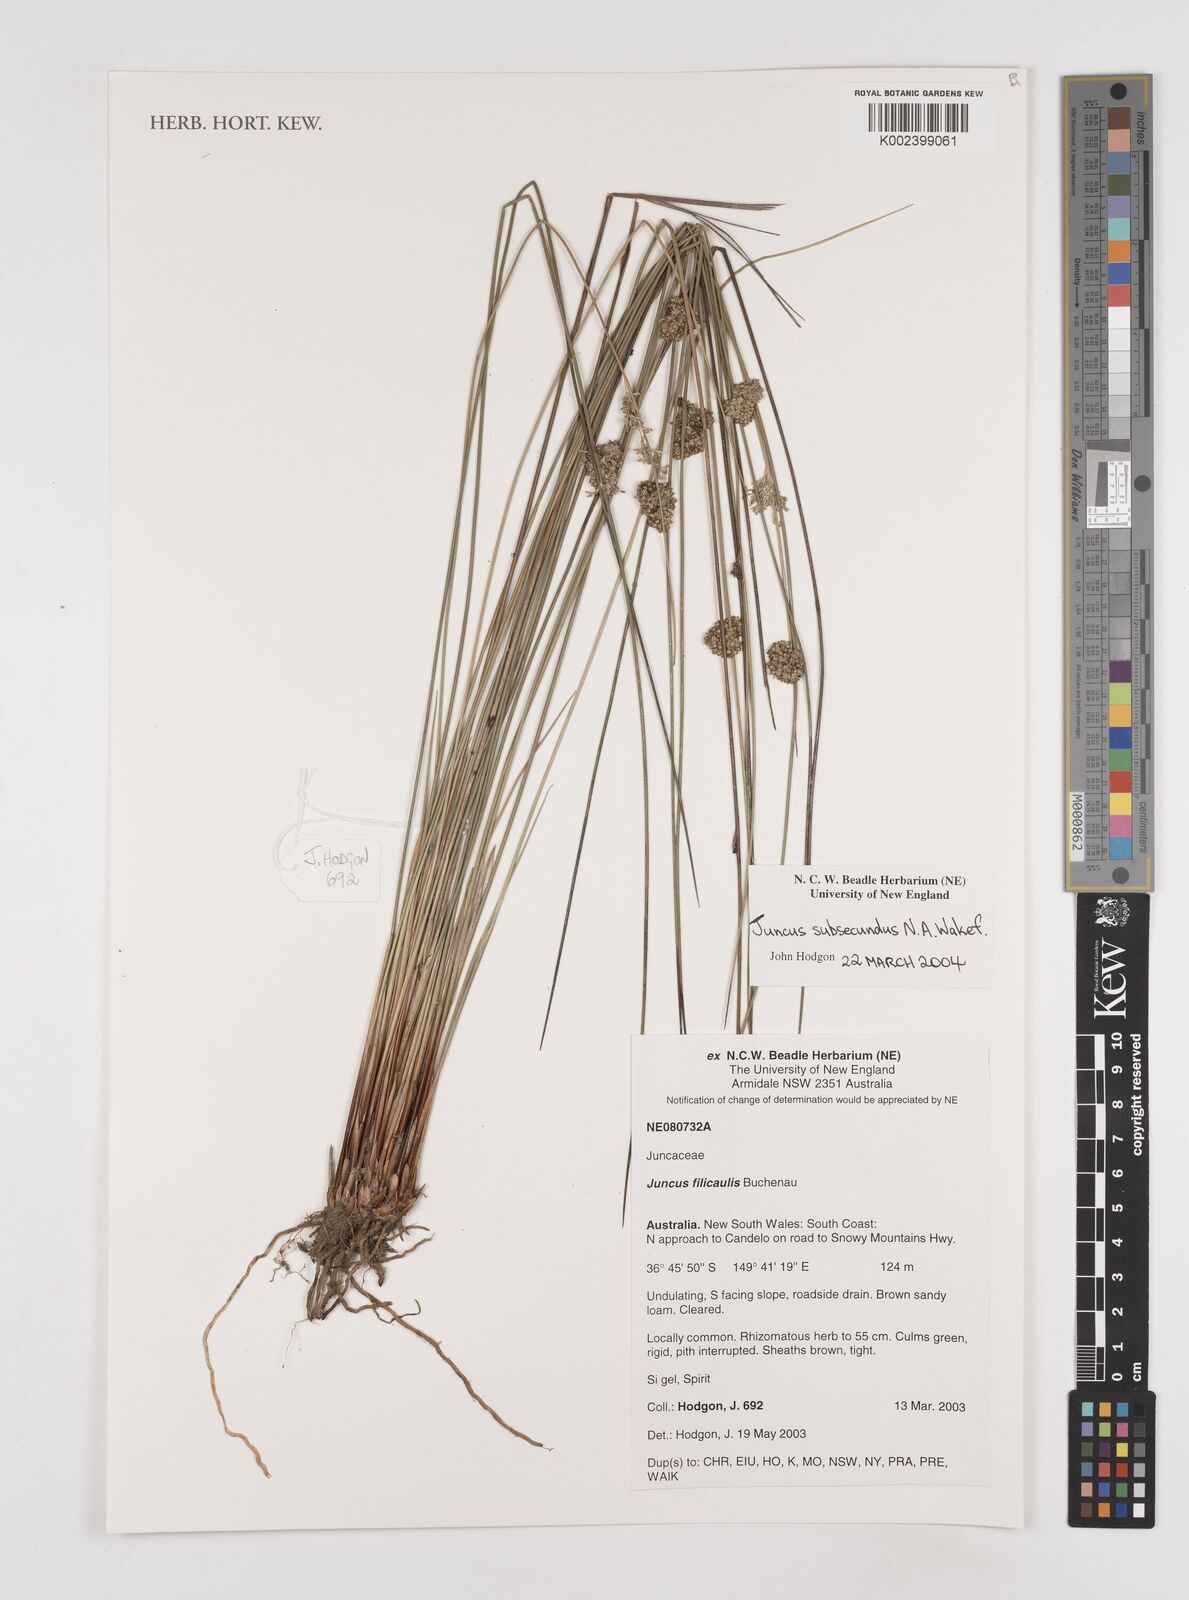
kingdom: Plantae
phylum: Tracheophyta
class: Liliopsida
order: Poales
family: Juncaceae
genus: Juncus
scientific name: Juncus subsecundus
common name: Fingered rush
